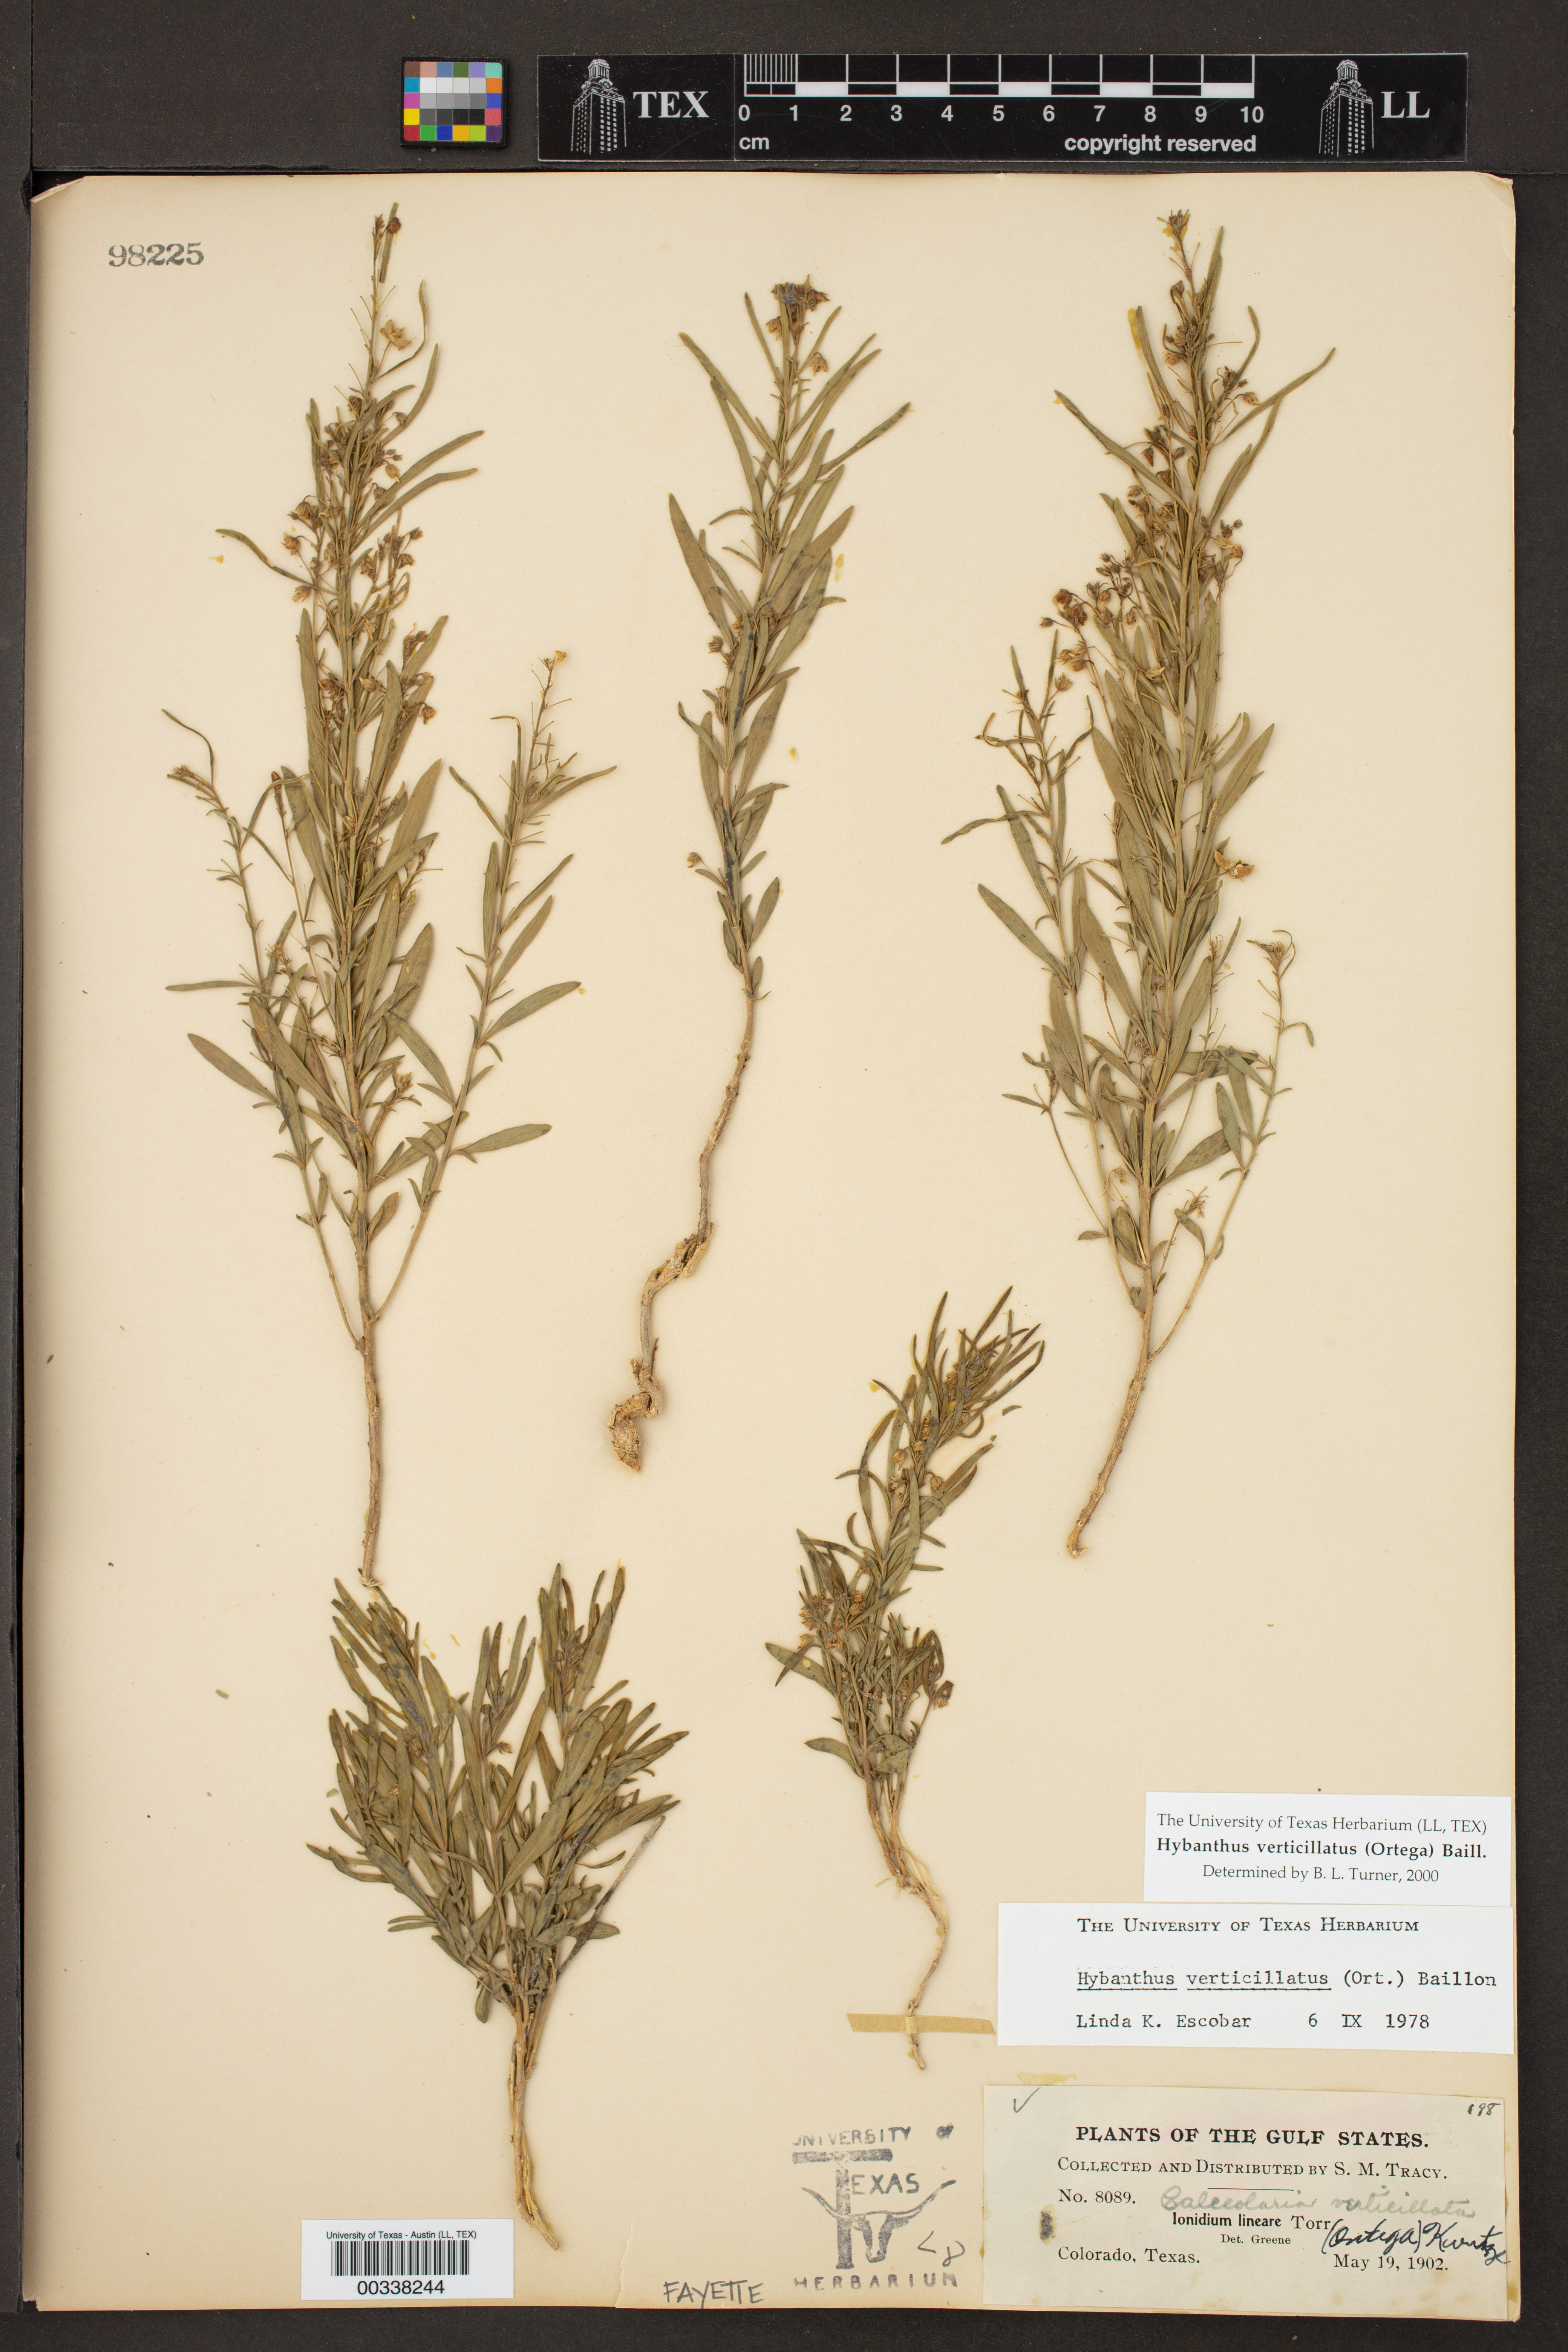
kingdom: Plantae
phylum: Tracheophyta
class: Magnoliopsida
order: Malpighiales
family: Violaceae
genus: Pombalia
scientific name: Pombalia verticillata
